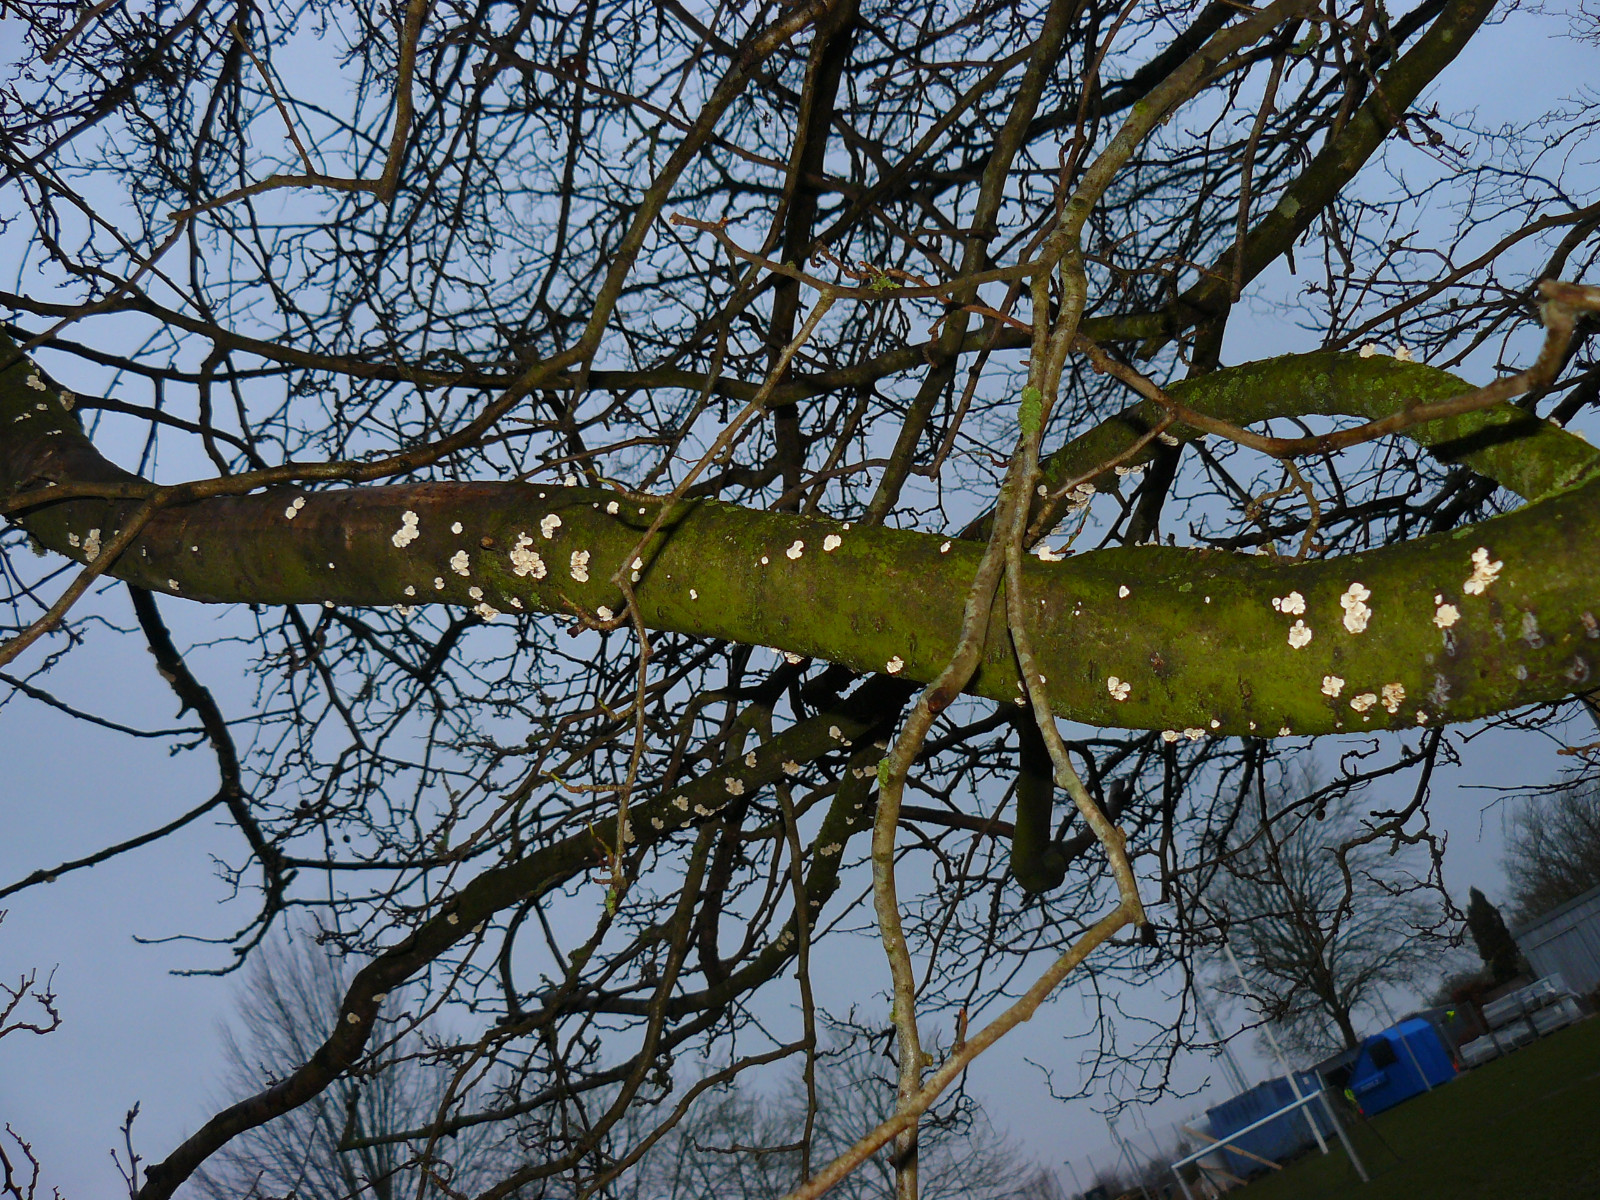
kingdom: Fungi
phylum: Basidiomycota
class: Agaricomycetes
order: Amylocorticiales
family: Amylocorticiaceae
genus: Plicaturopsis
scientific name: Plicaturopsis crispa
